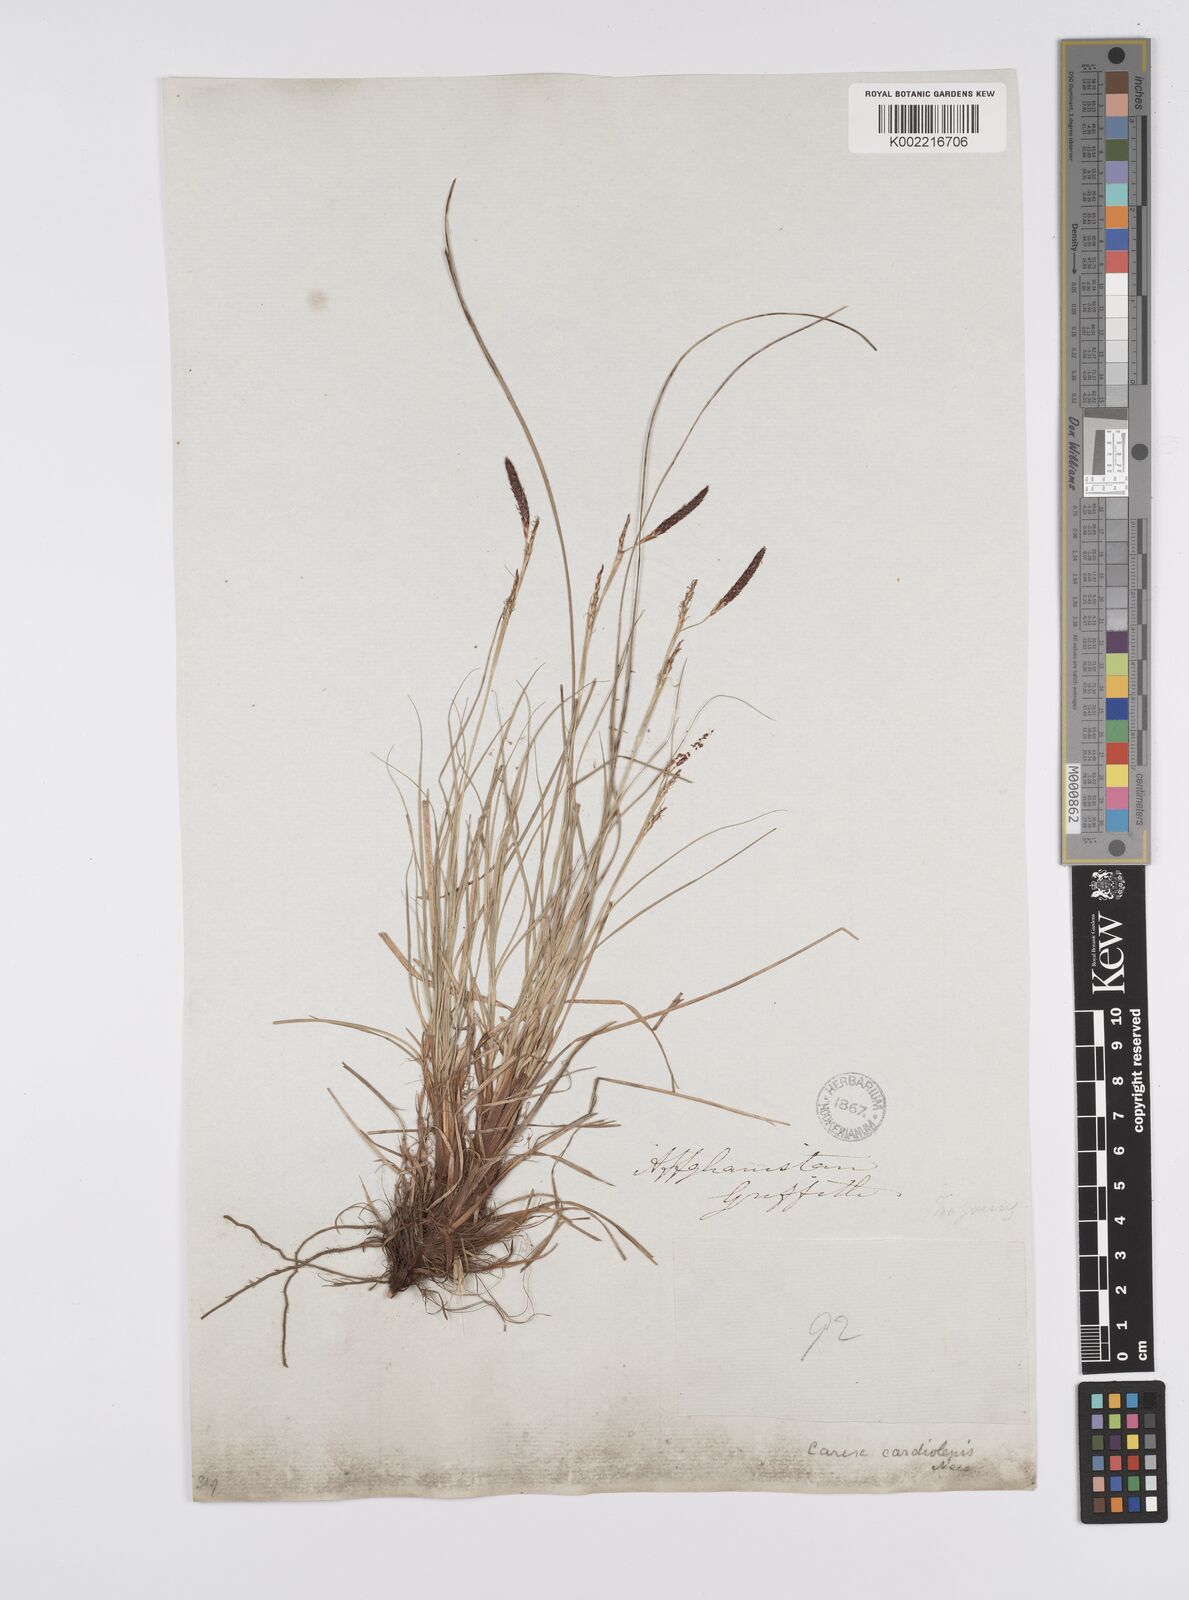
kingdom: Plantae
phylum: Tracheophyta
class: Liliopsida
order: Poales
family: Cyperaceae
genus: Carex
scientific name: Carex cardiolepis
